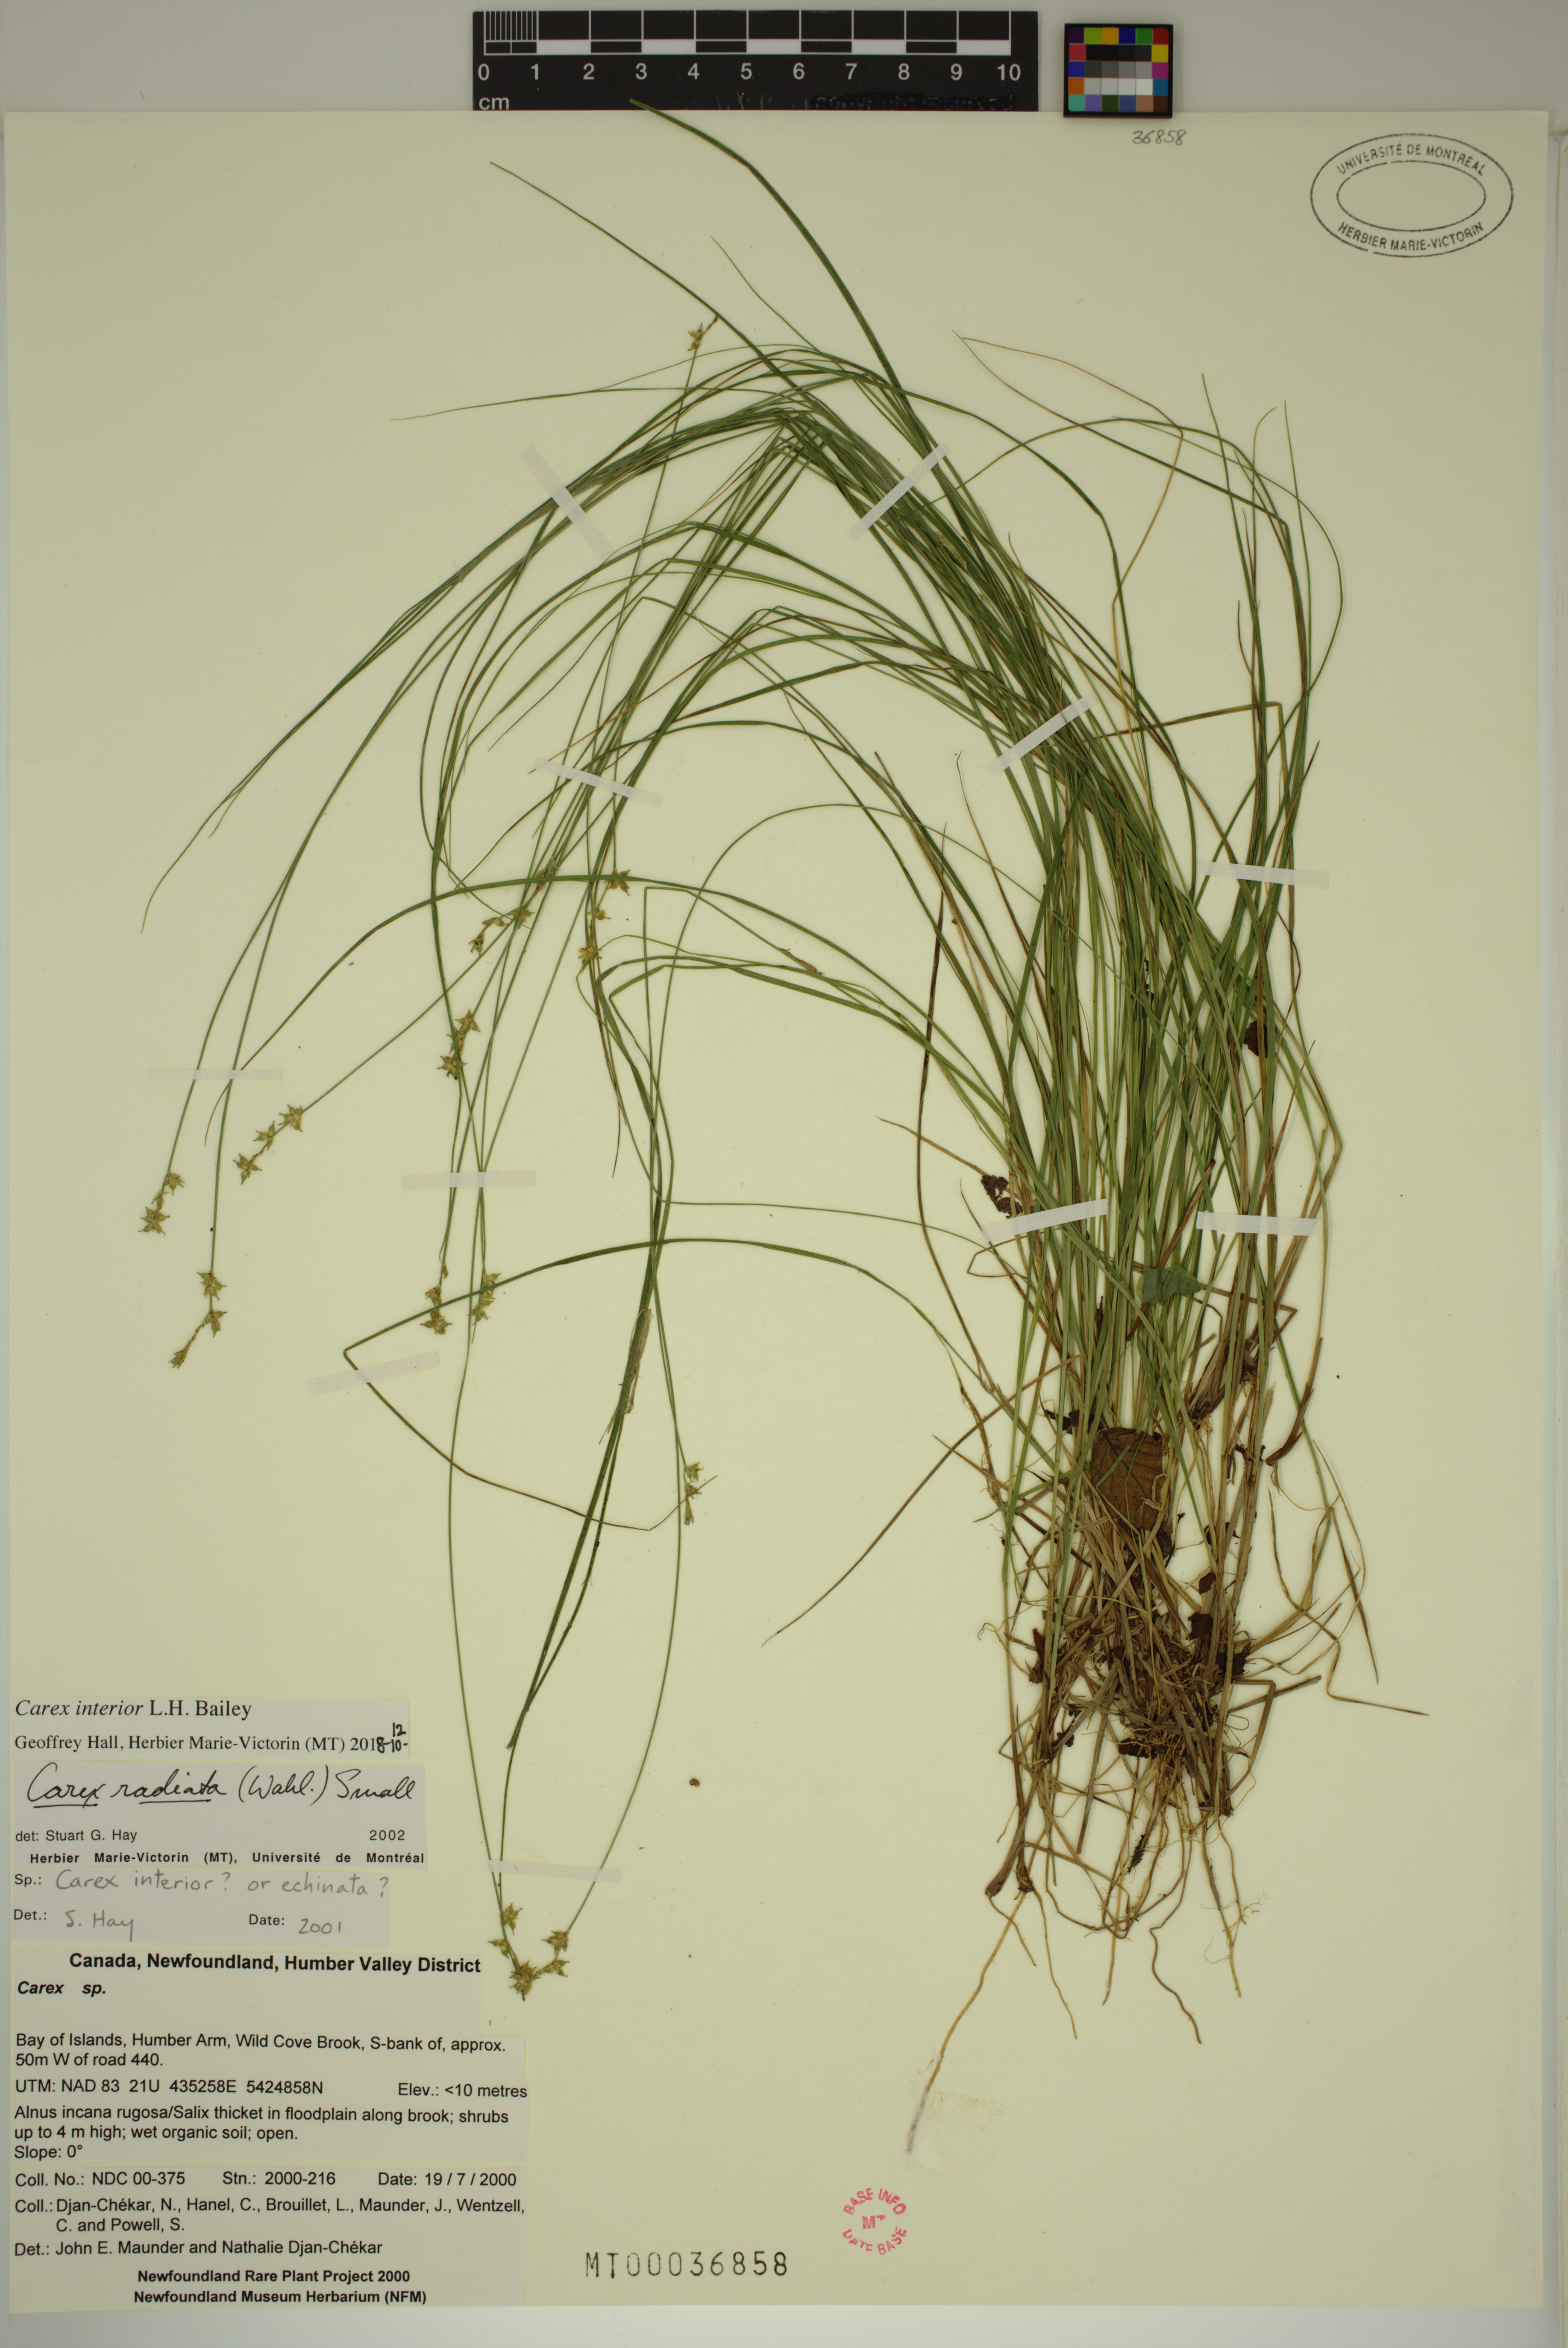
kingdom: Plantae
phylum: Tracheophyta
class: Liliopsida
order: Poales
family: Cyperaceae
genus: Carex
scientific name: Carex interior
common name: Inland sedge
